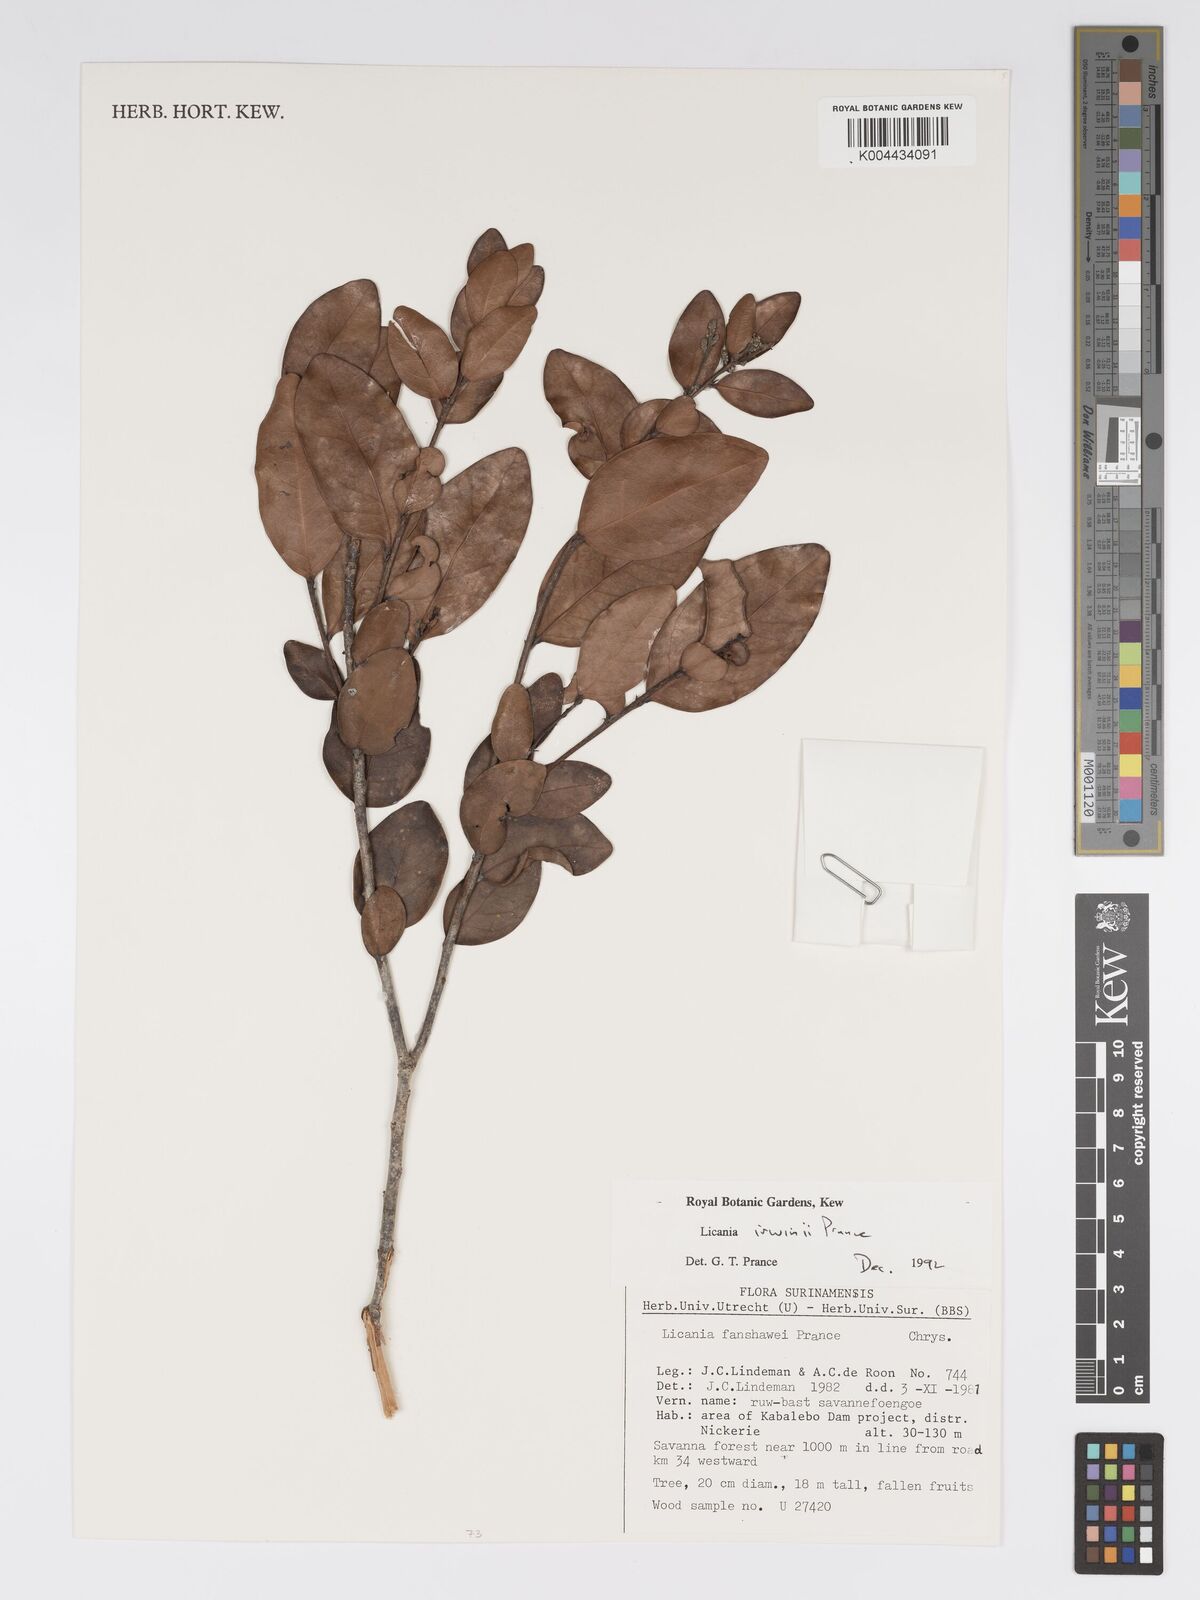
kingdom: Plantae
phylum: Tracheophyta
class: Magnoliopsida
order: Malpighiales
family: Chrysobalanaceae
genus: Licania
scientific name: Licania irwinii
